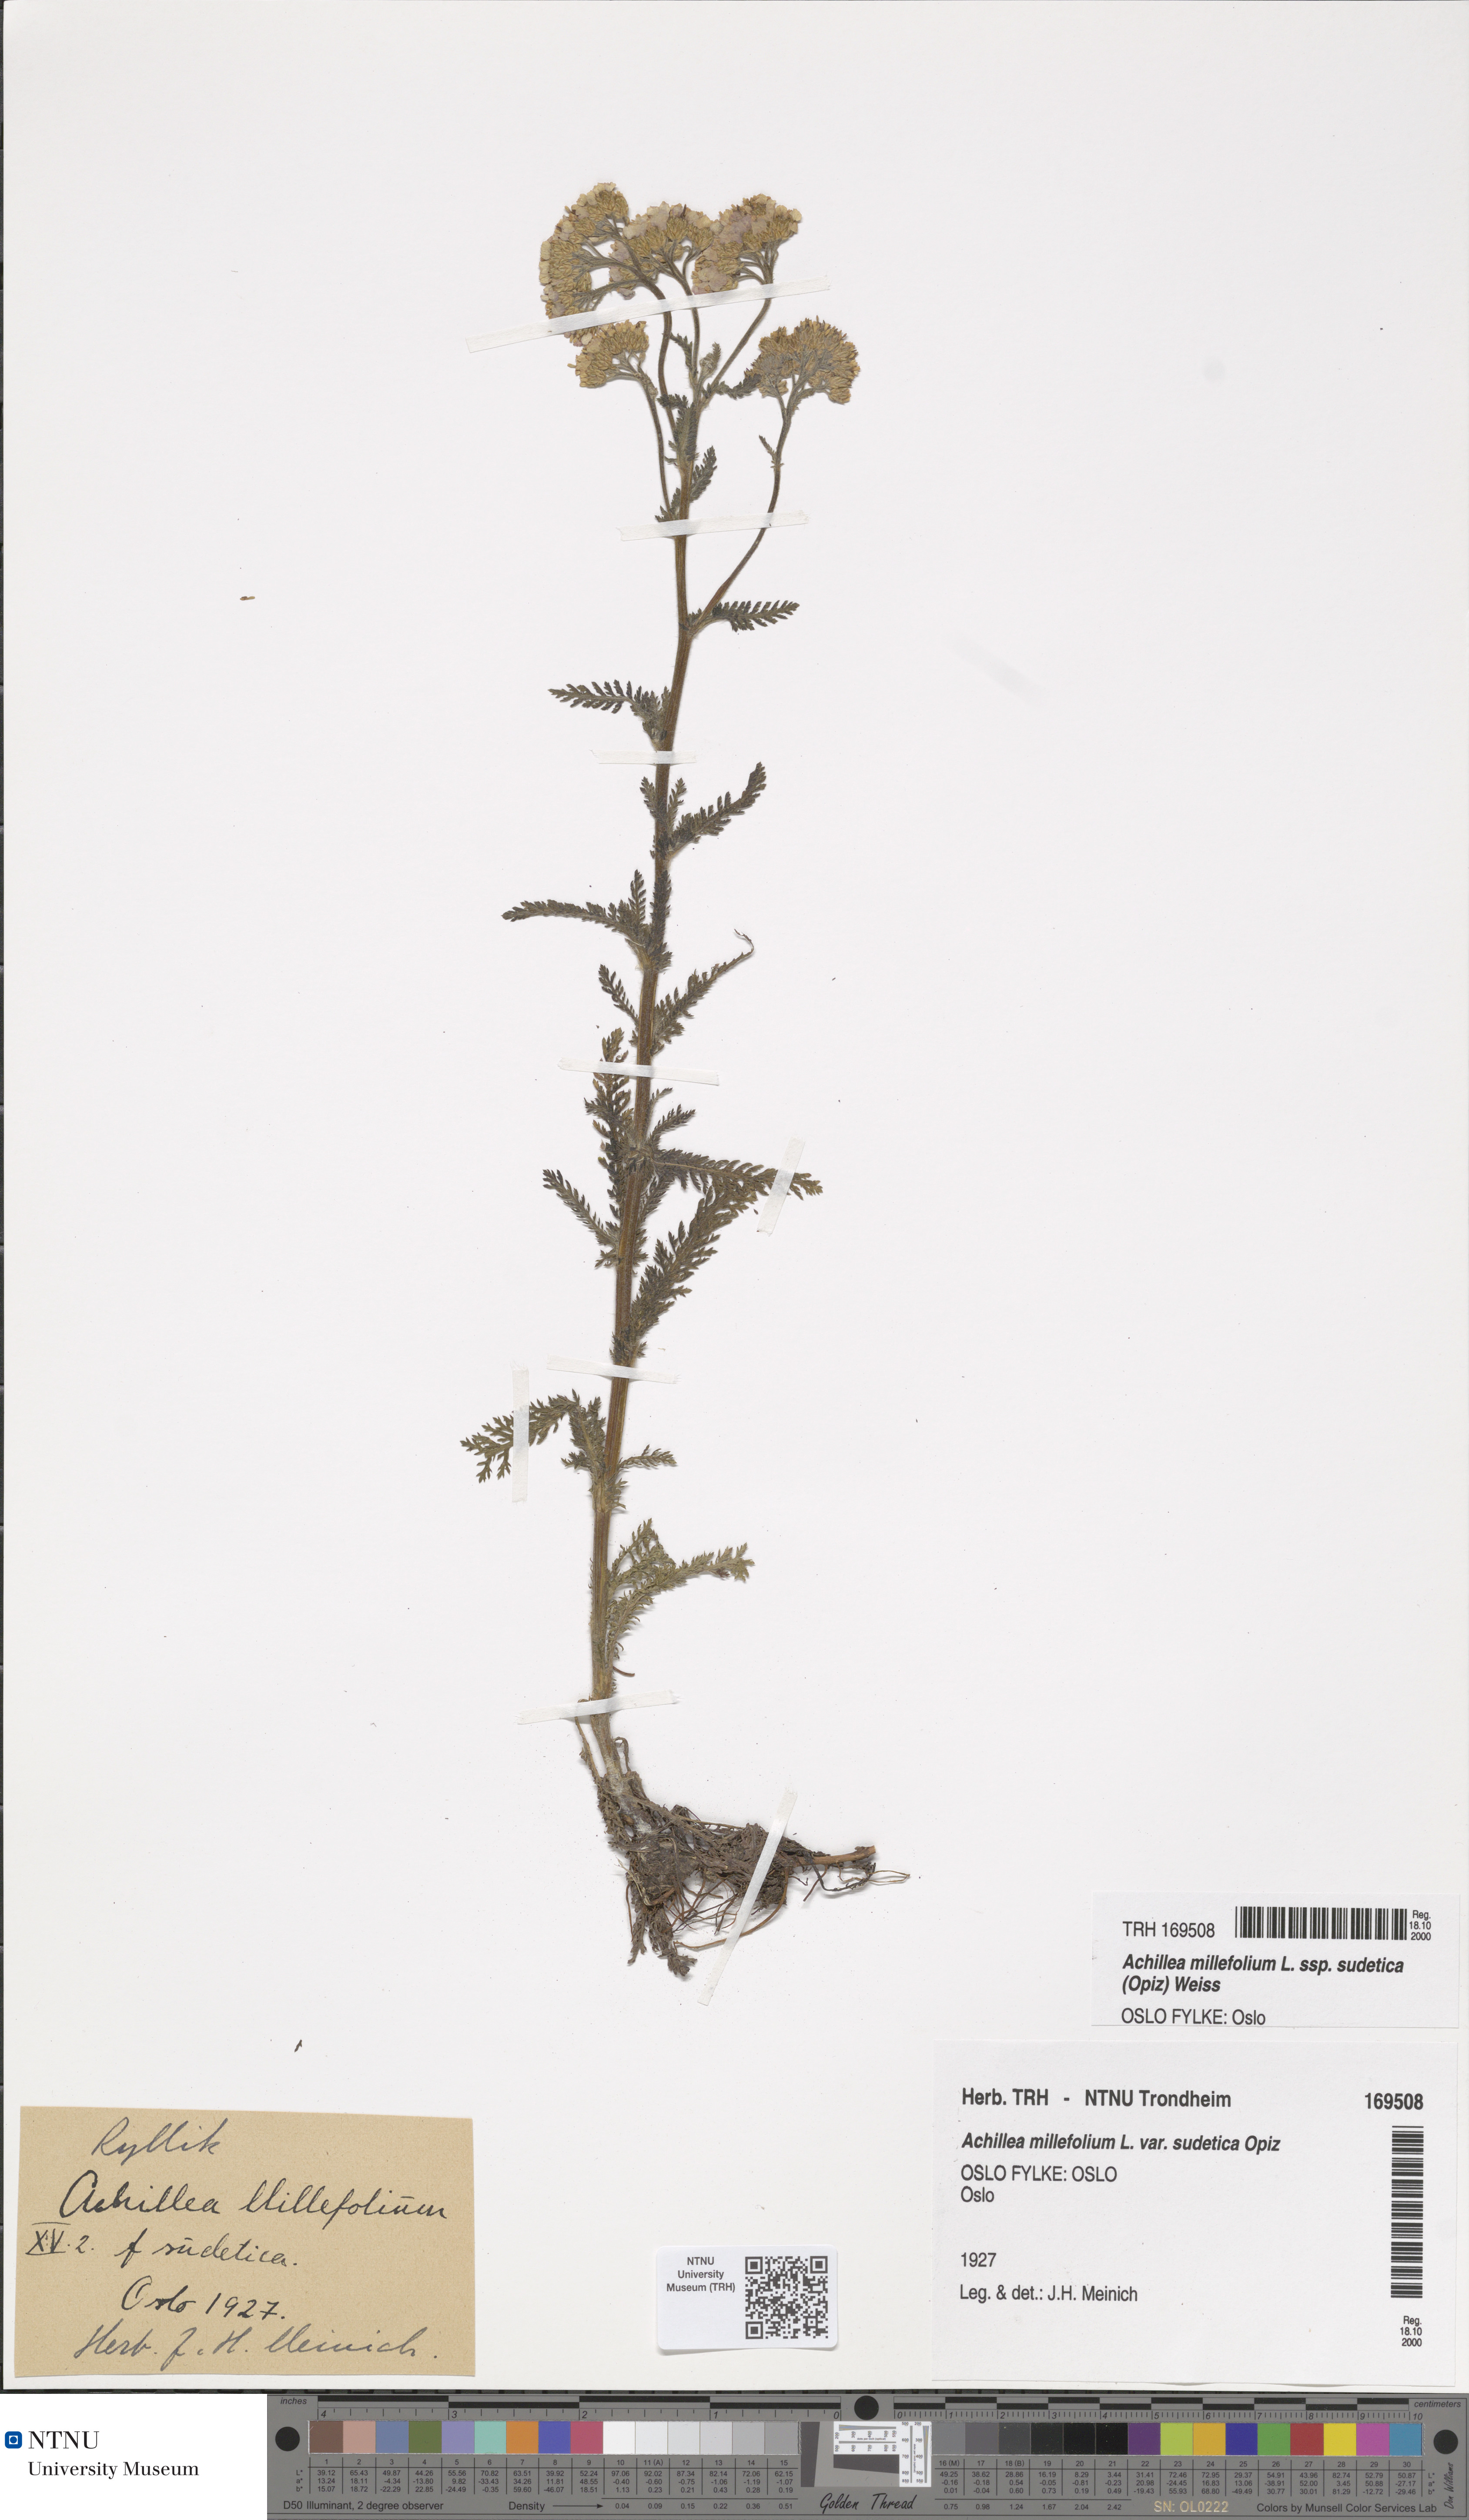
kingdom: Plantae
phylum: Tracheophyta
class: Magnoliopsida
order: Asterales
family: Asteraceae
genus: Achillea
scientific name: Achillea millefolium
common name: Yarrow
